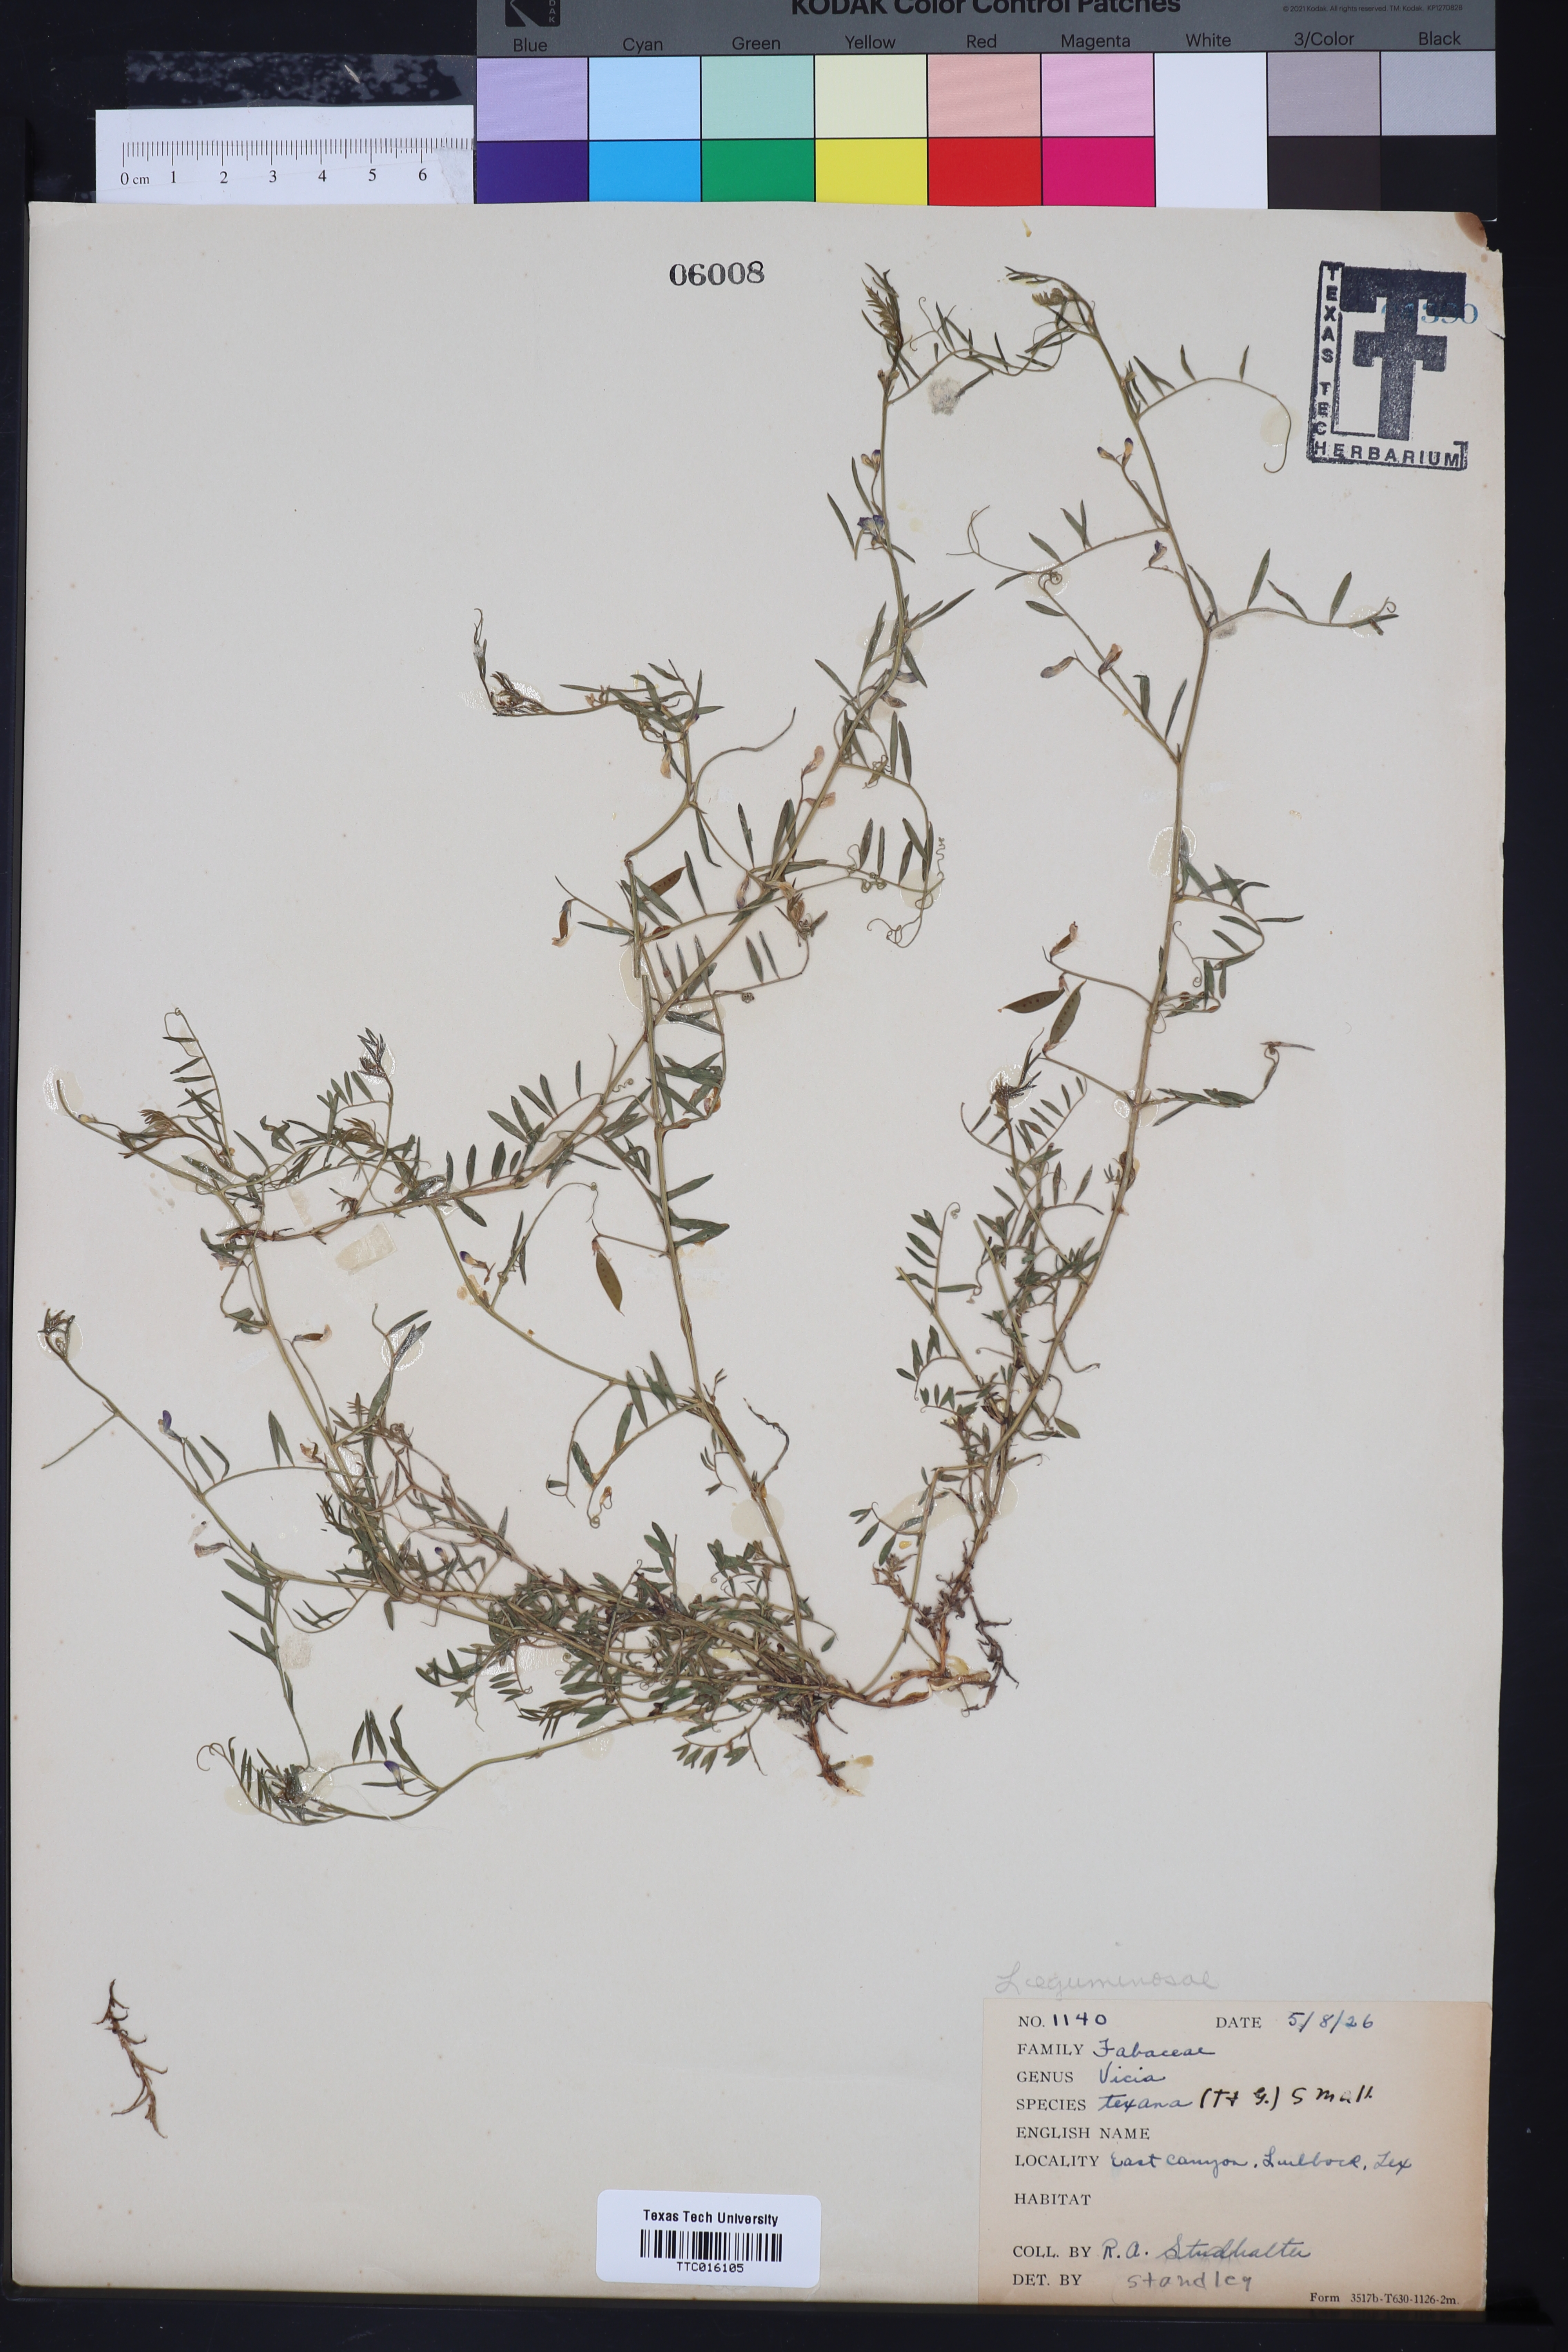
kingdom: Plantae
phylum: Tracheophyta
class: Magnoliopsida
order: Fabales
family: Fabaceae
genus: Vicia
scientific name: Vicia ludoviciana
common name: Louisiana vetch
